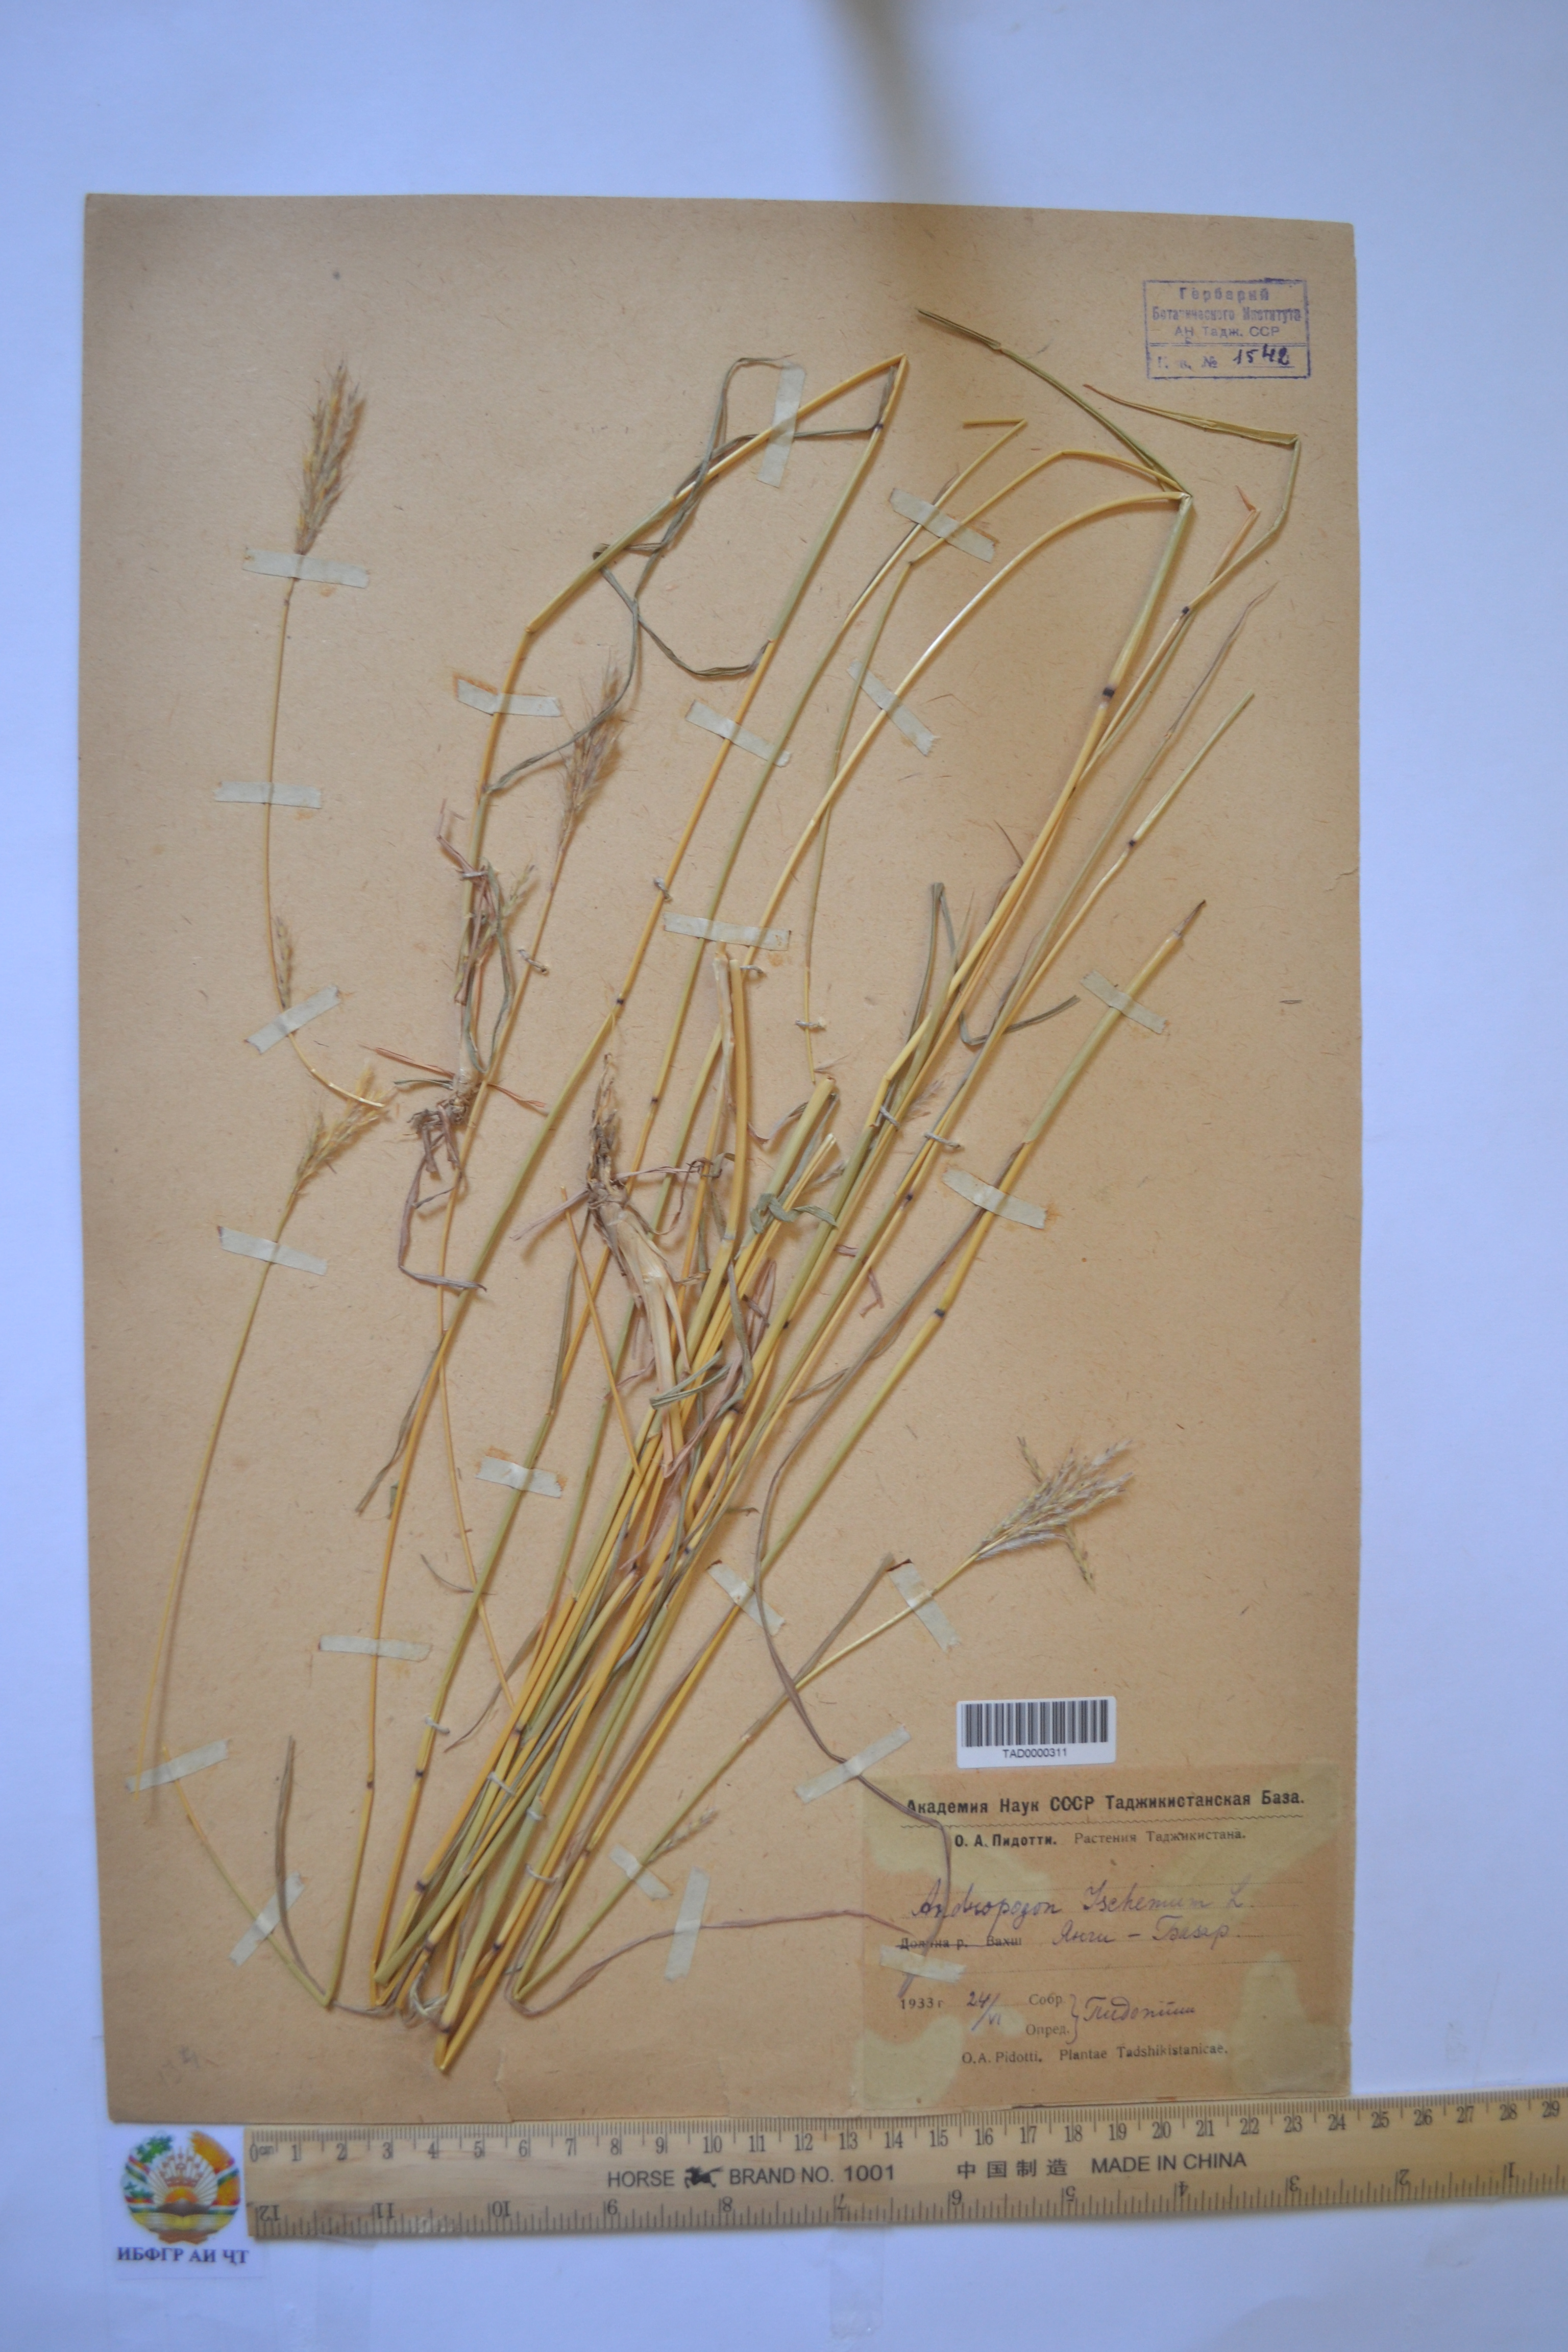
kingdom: Plantae
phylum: Tracheophyta
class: Liliopsida
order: Poales
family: Poaceae
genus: Bothriochloa
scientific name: Bothriochloa ischaemum
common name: Yellow bluestem
